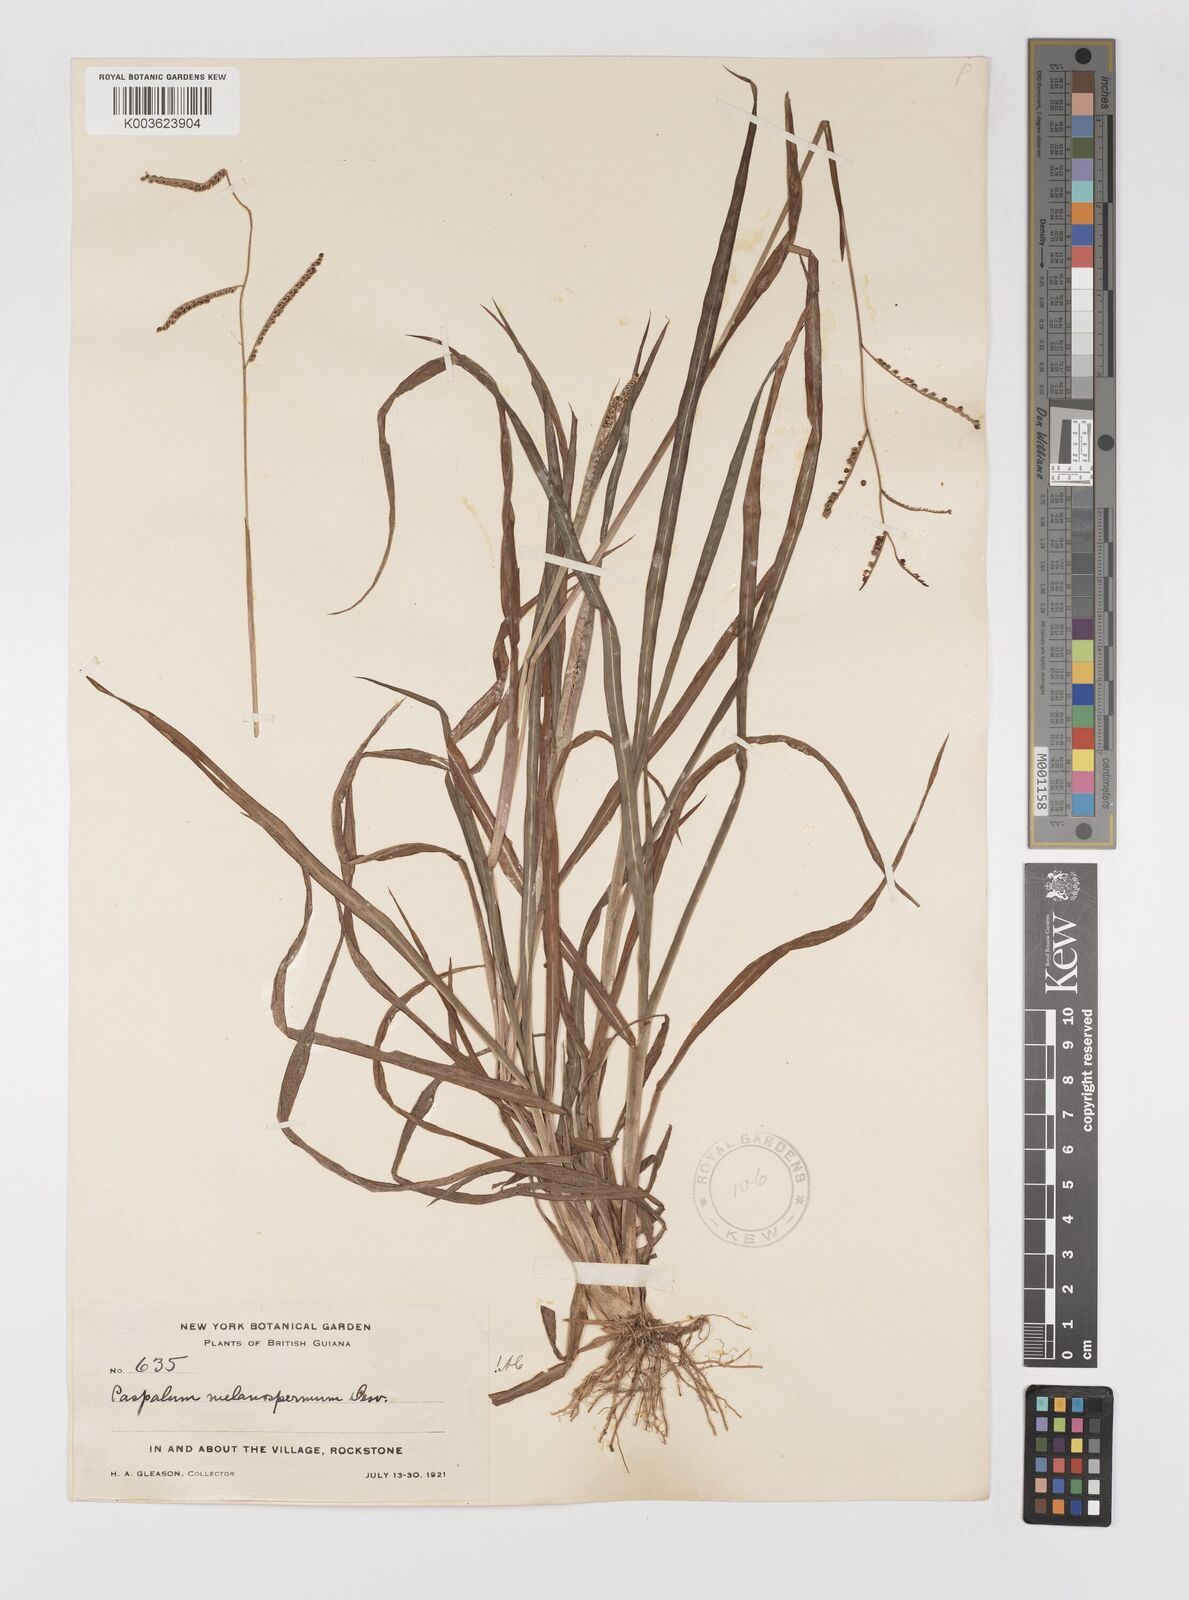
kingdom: Plantae
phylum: Tracheophyta
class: Liliopsida
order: Poales
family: Poaceae
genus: Paspalum
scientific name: Paspalum melanospermum
